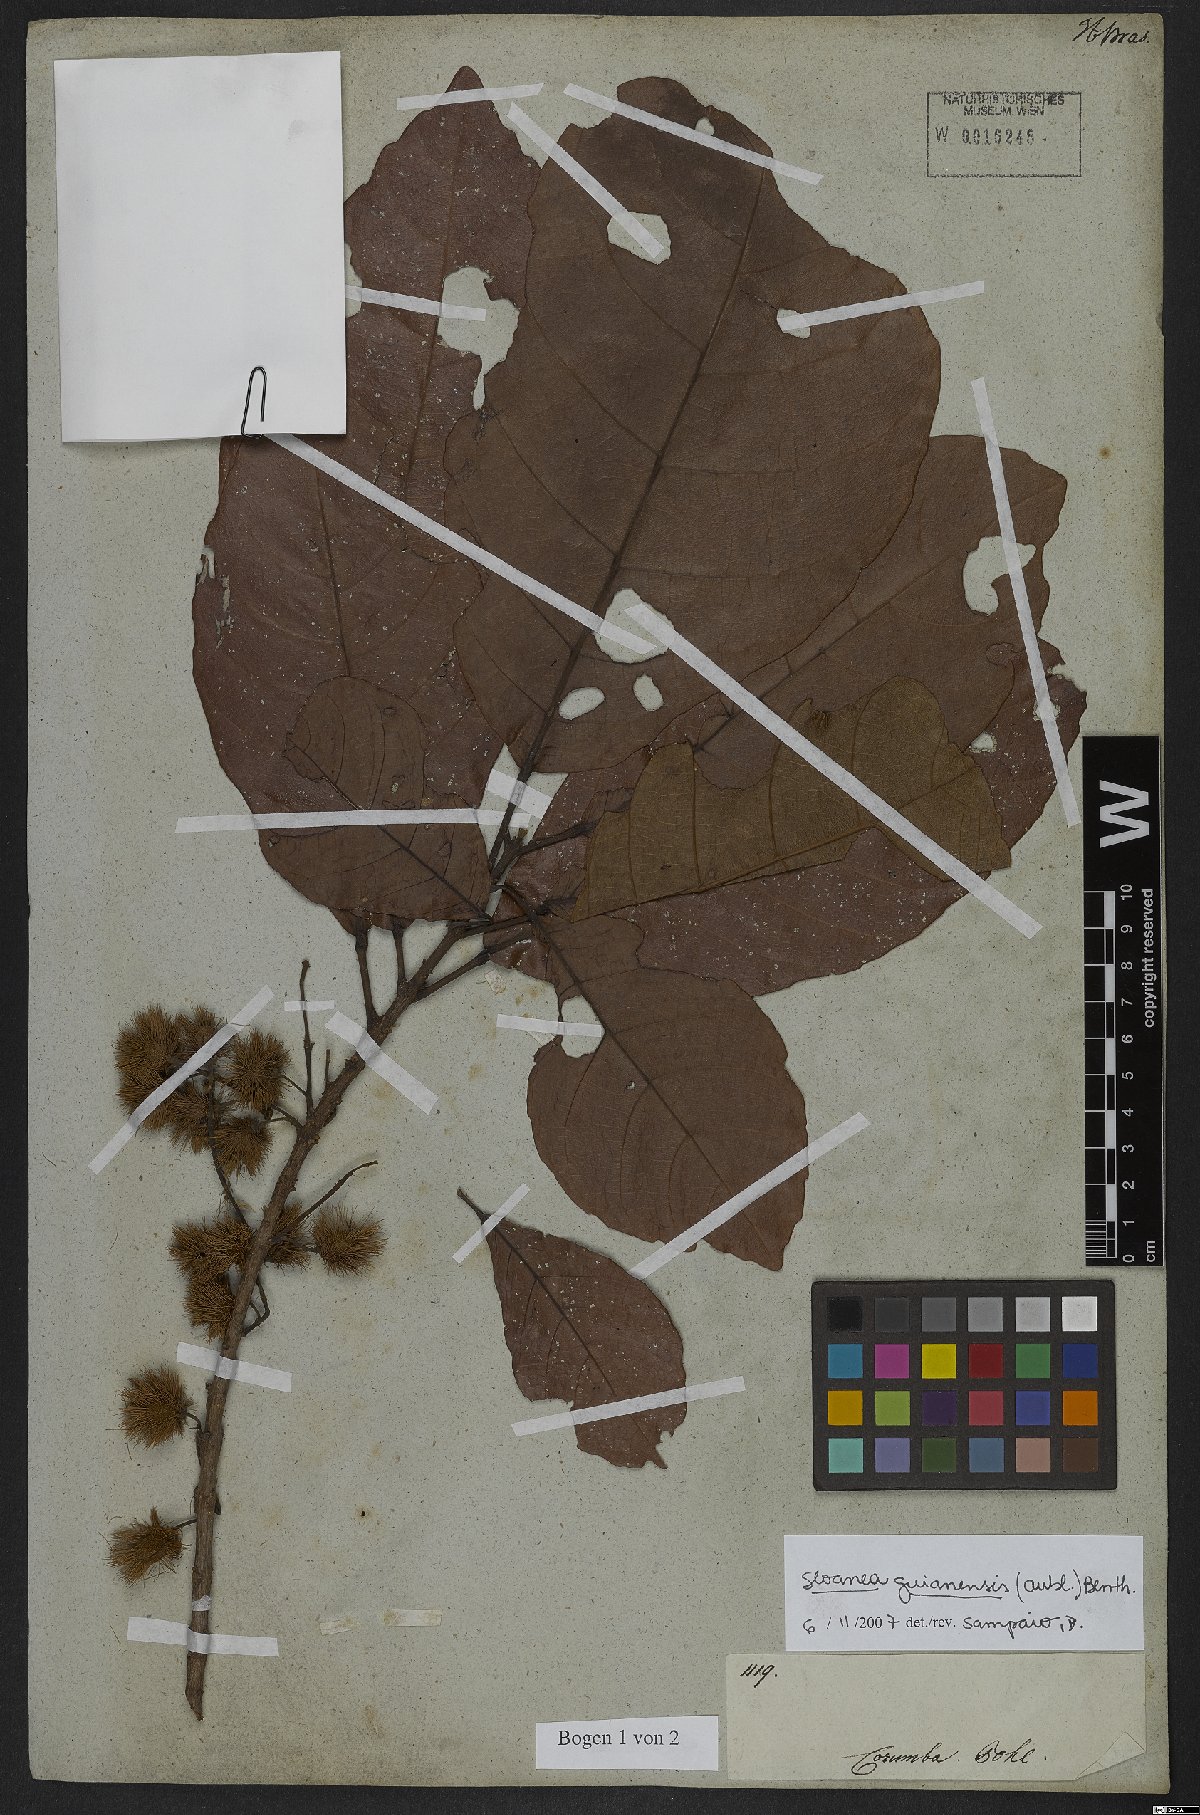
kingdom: Plantae
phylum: Tracheophyta
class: Magnoliopsida
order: Oxalidales
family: Elaeocarpaceae
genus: Sloanea
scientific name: Sloanea guianensis
